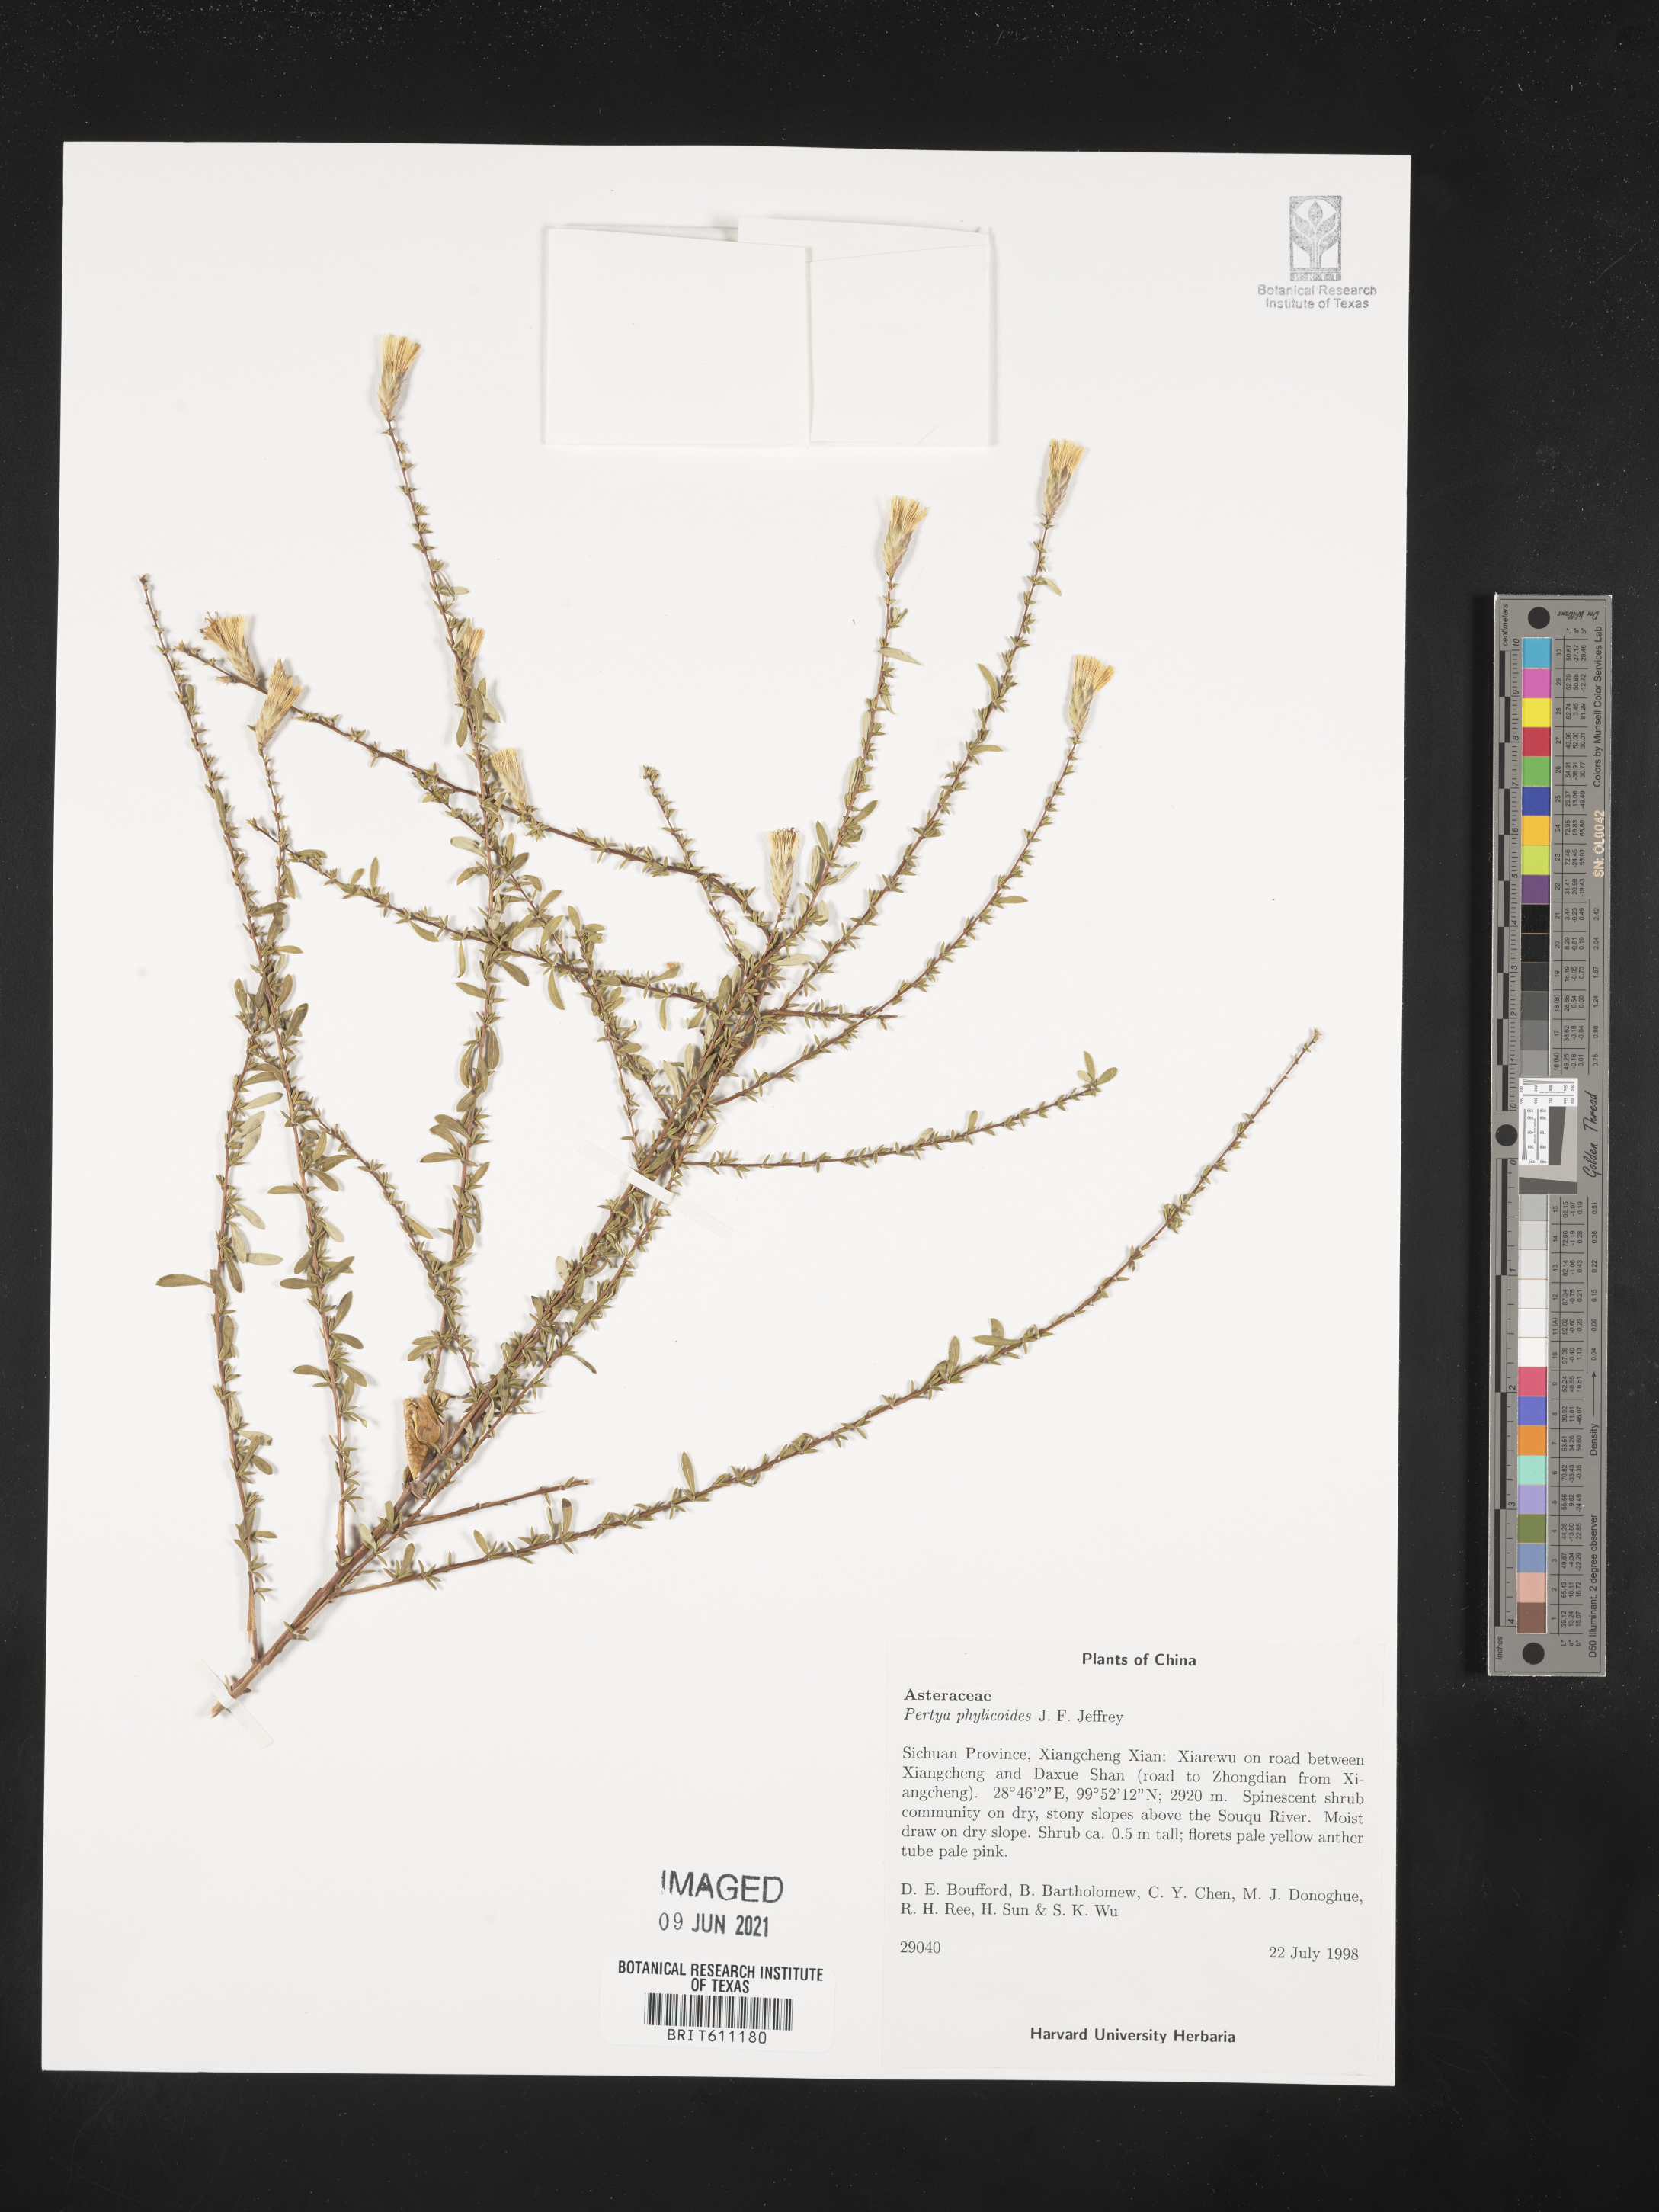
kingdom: Plantae
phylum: Tracheophyta
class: Magnoliopsida
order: Asterales
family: Asteraceae
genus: Pertya
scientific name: Pertya phylicoides
